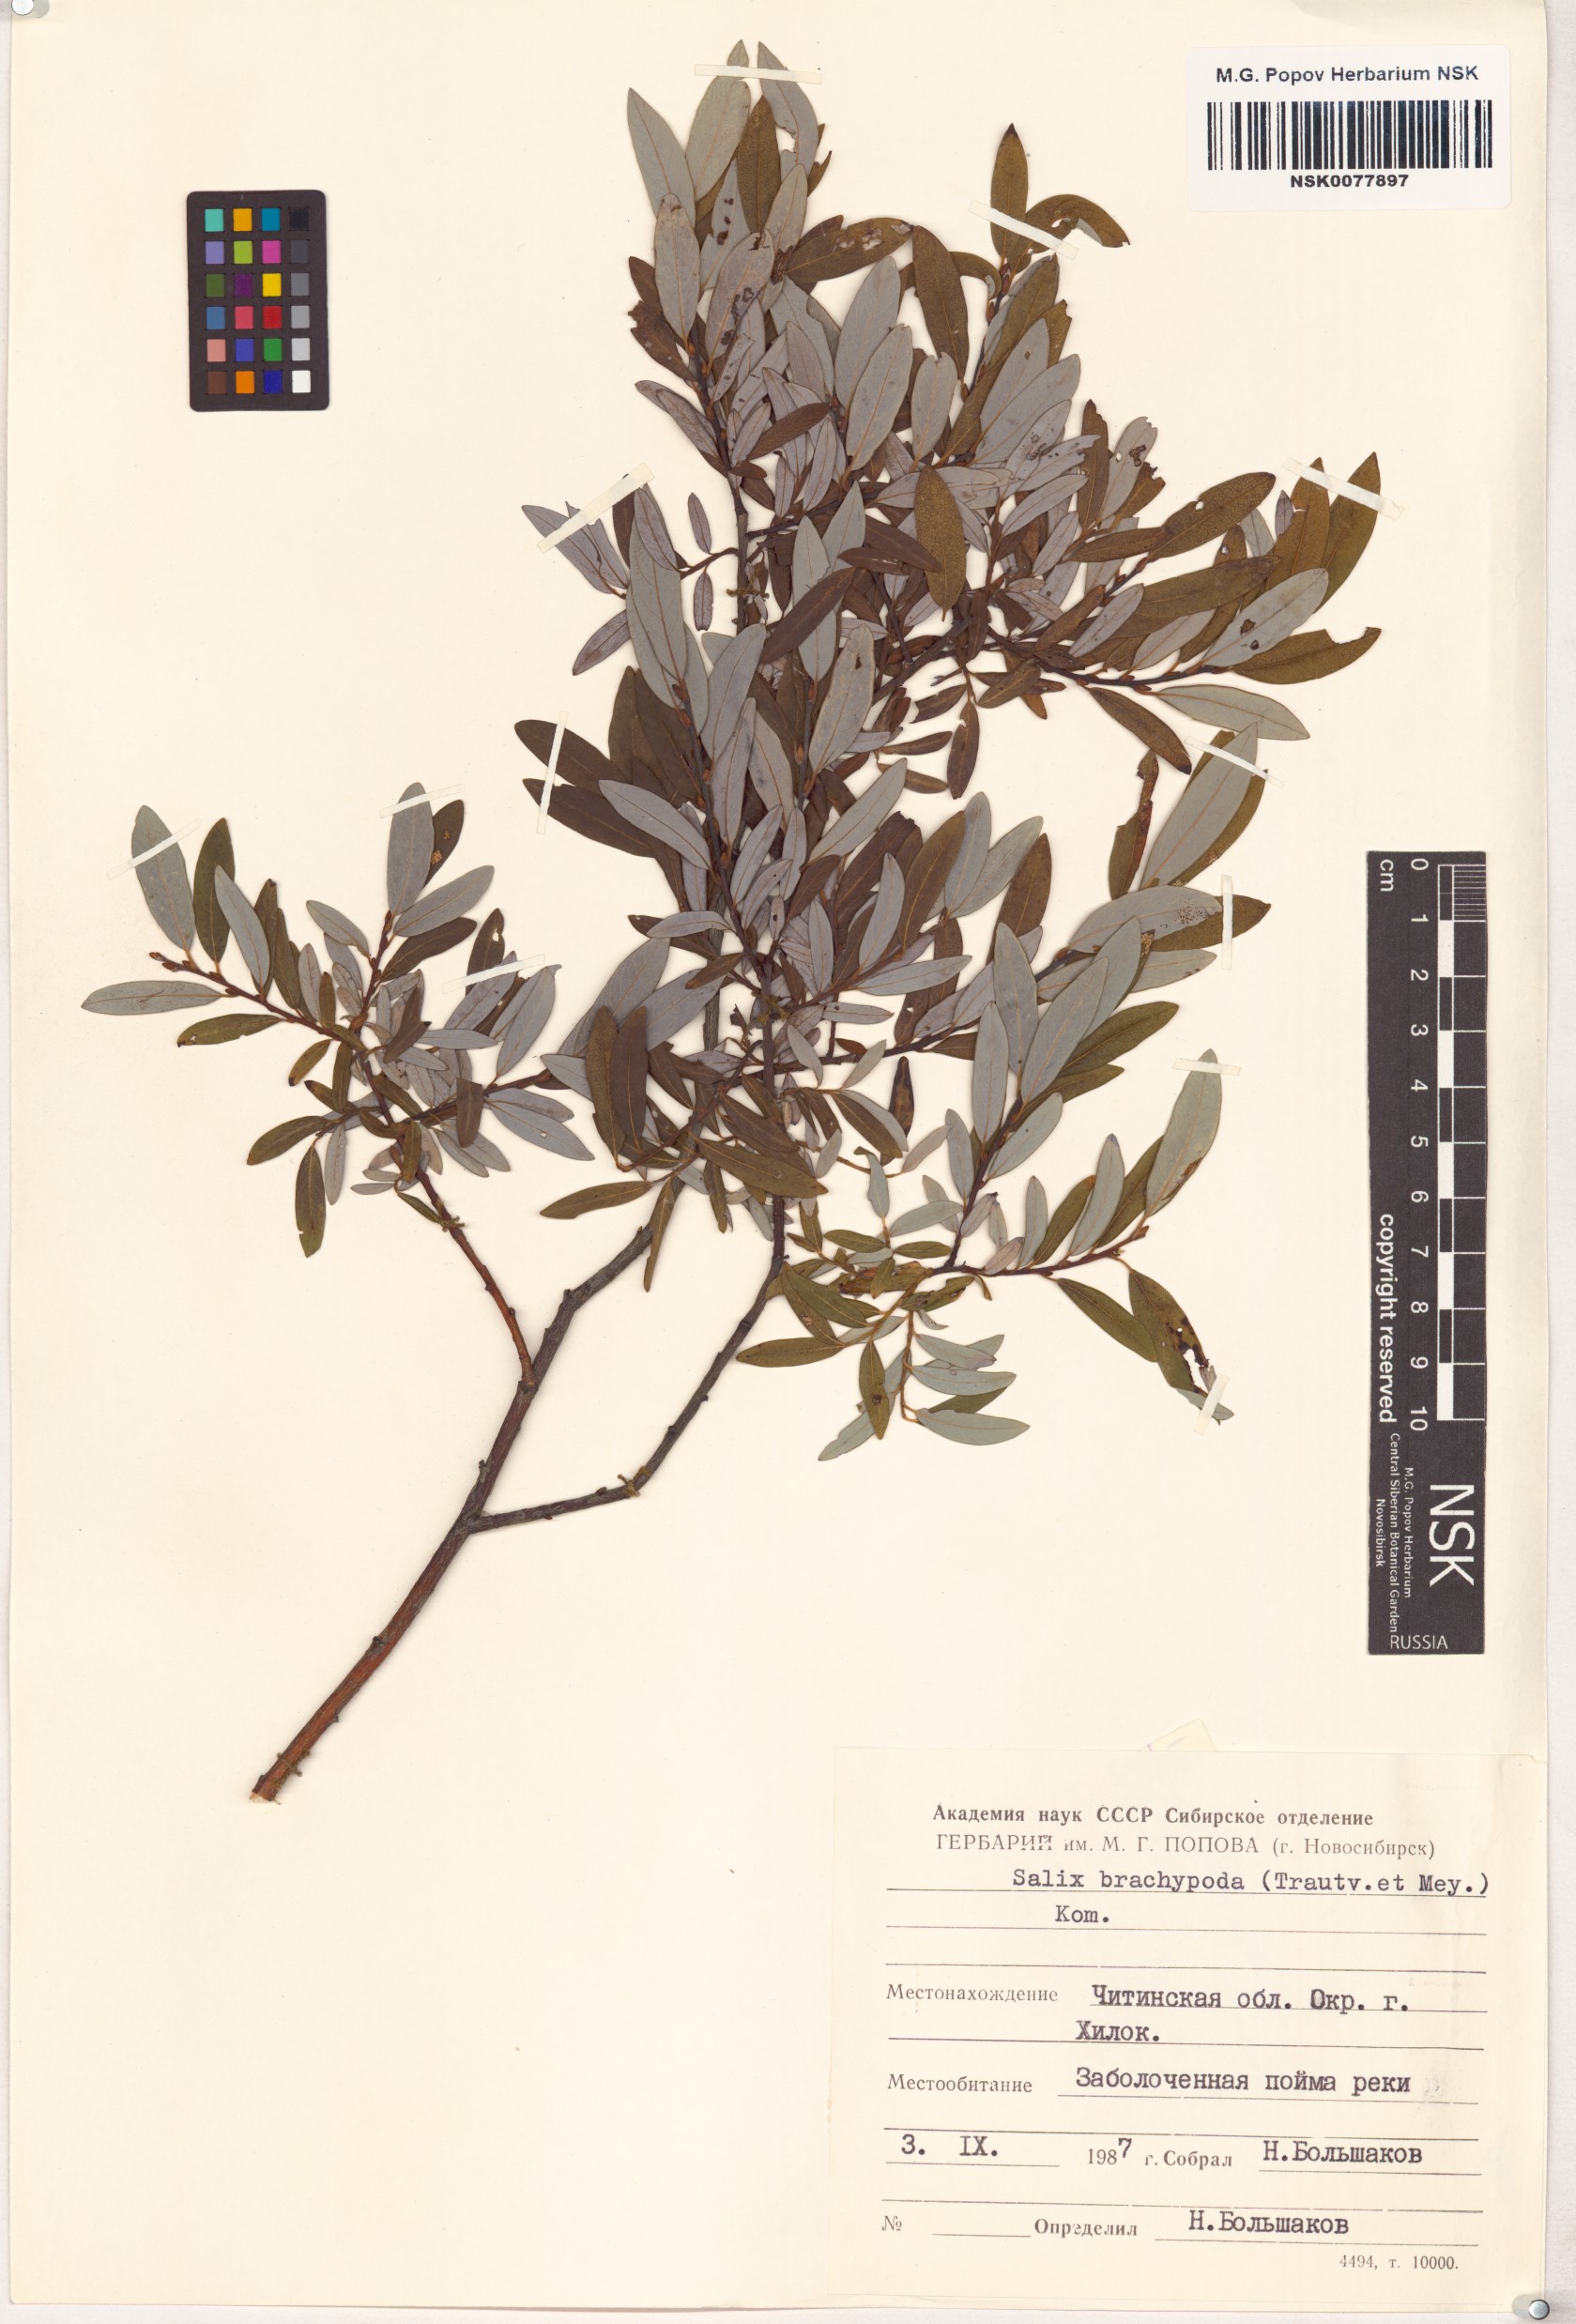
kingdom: Plantae
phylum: Tracheophyta
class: Magnoliopsida
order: Malpighiales
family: Salicaceae
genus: Salix
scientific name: Salix brachypoda
